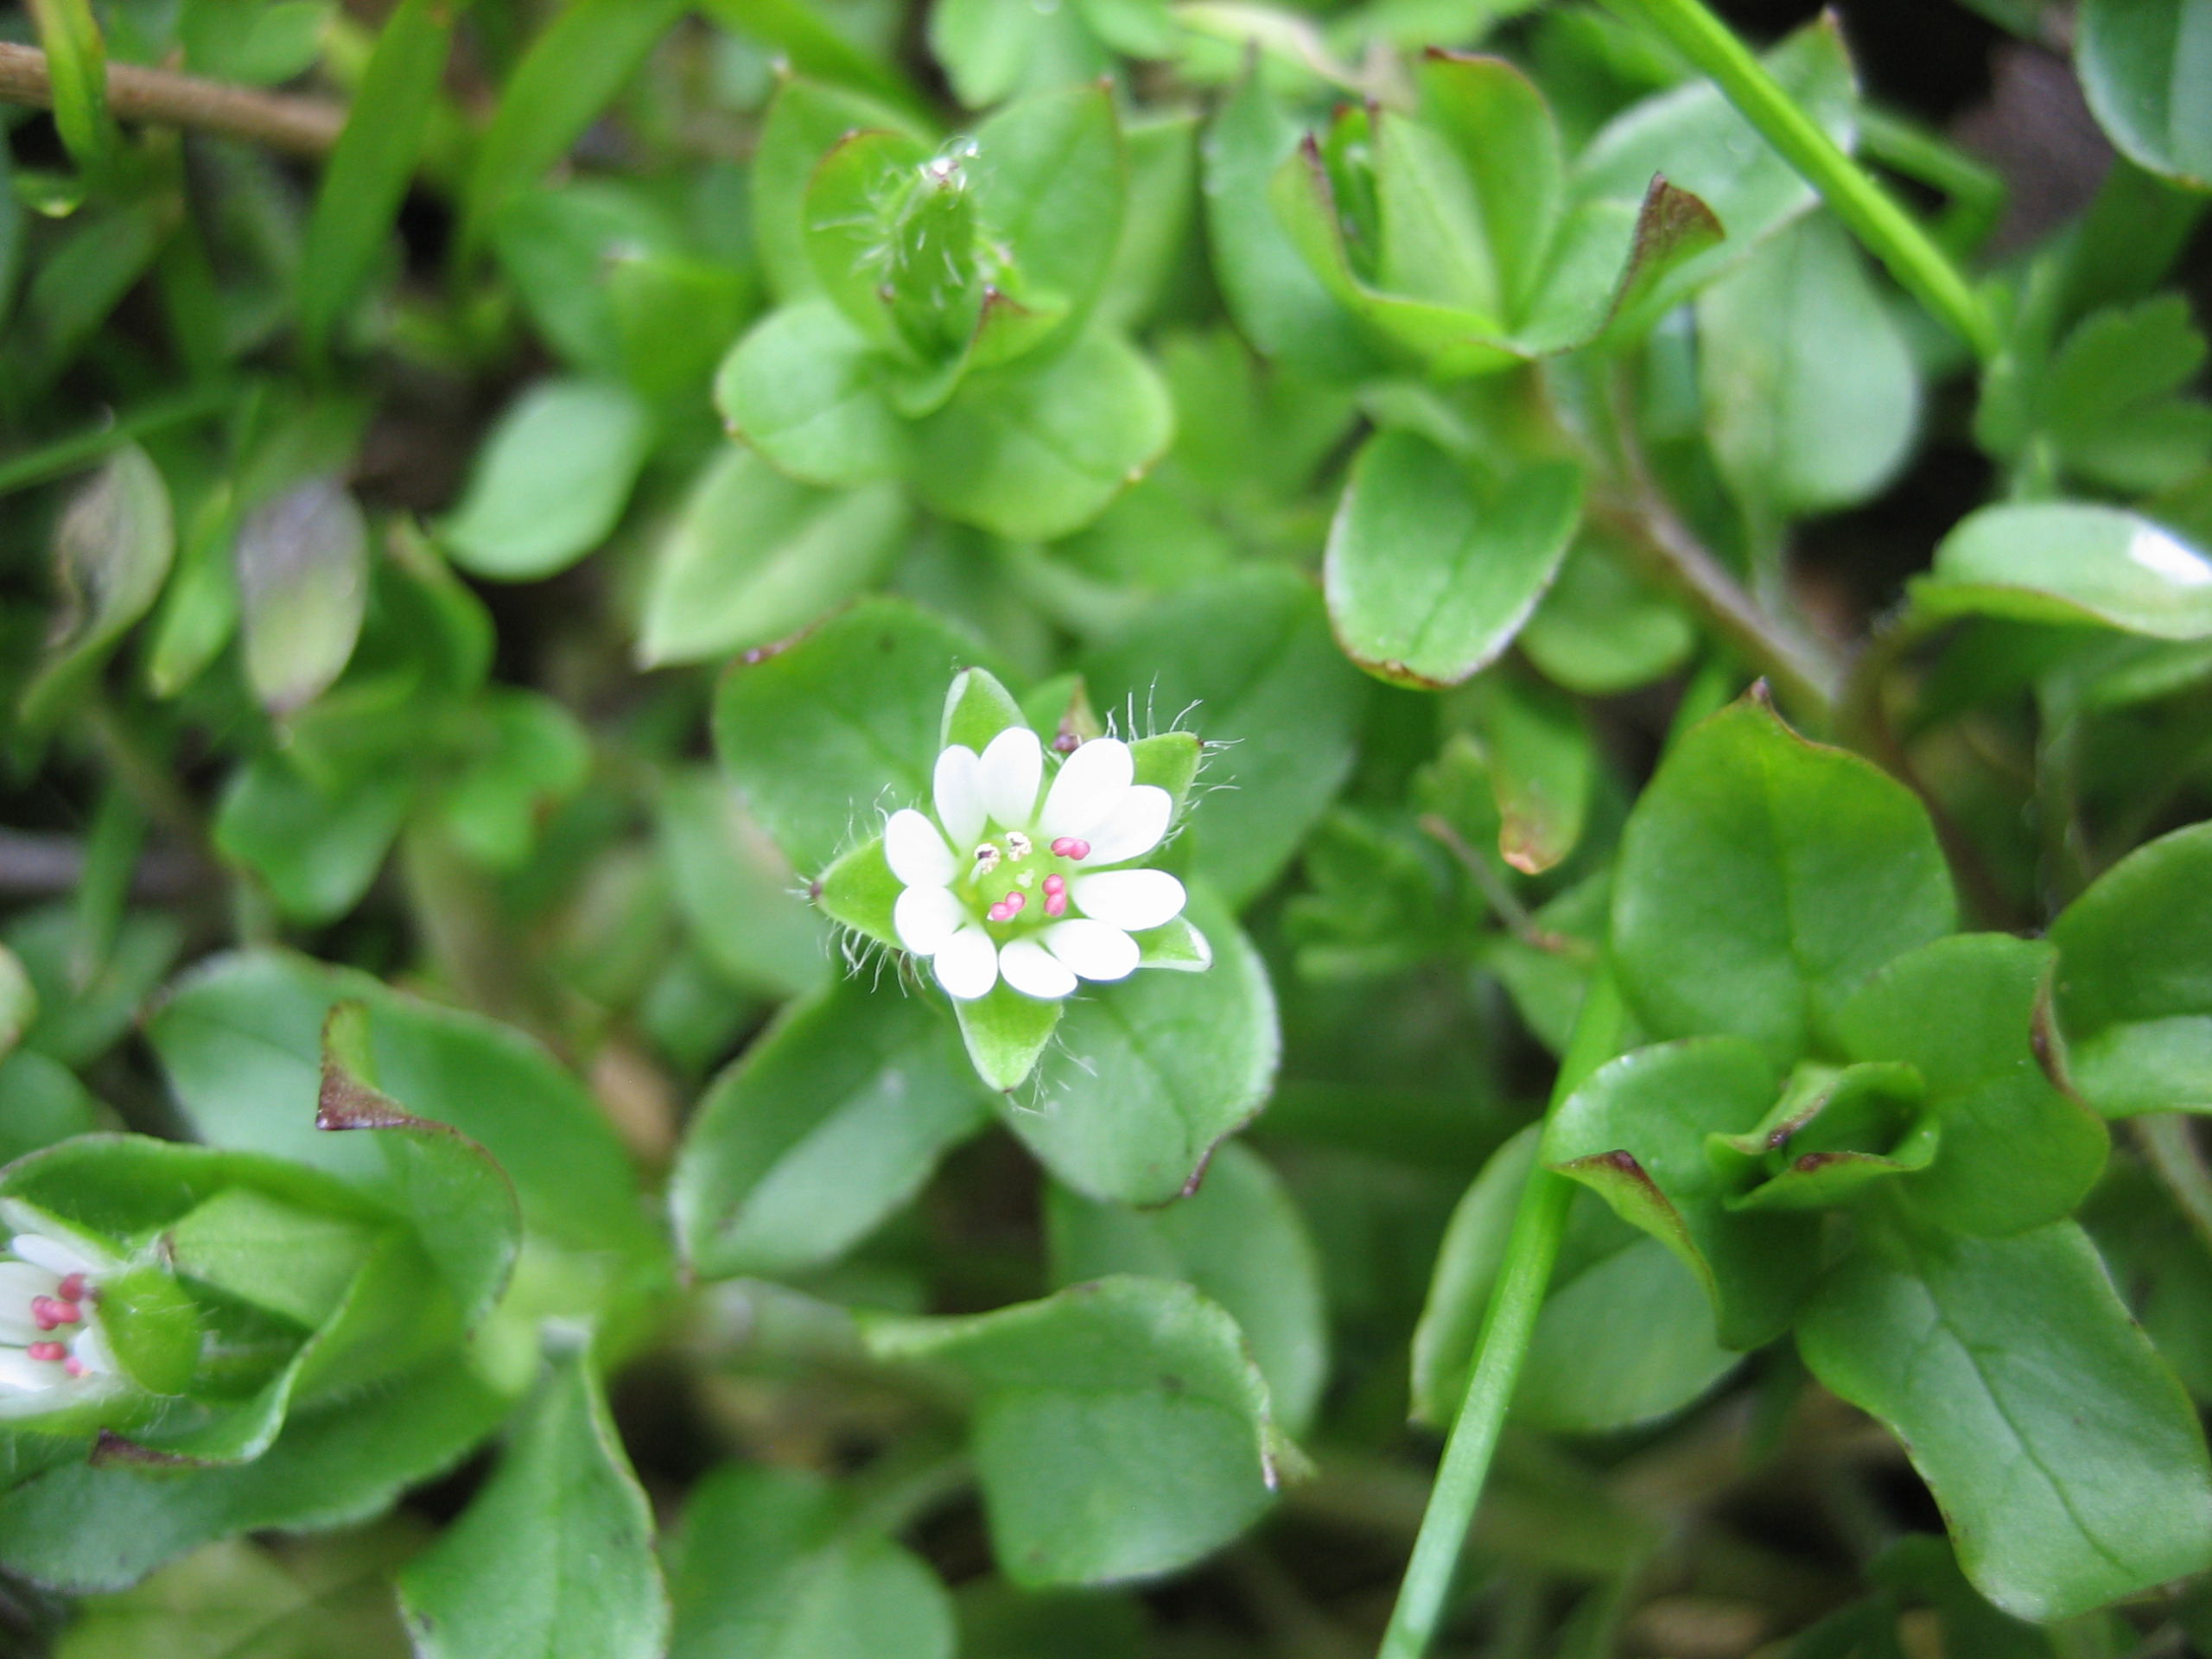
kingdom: Plantae
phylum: Tracheophyta
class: Magnoliopsida
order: Caryophyllales
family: Caryophyllaceae
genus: Stellaria
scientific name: Stellaria media
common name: Almindelig fuglegræs
